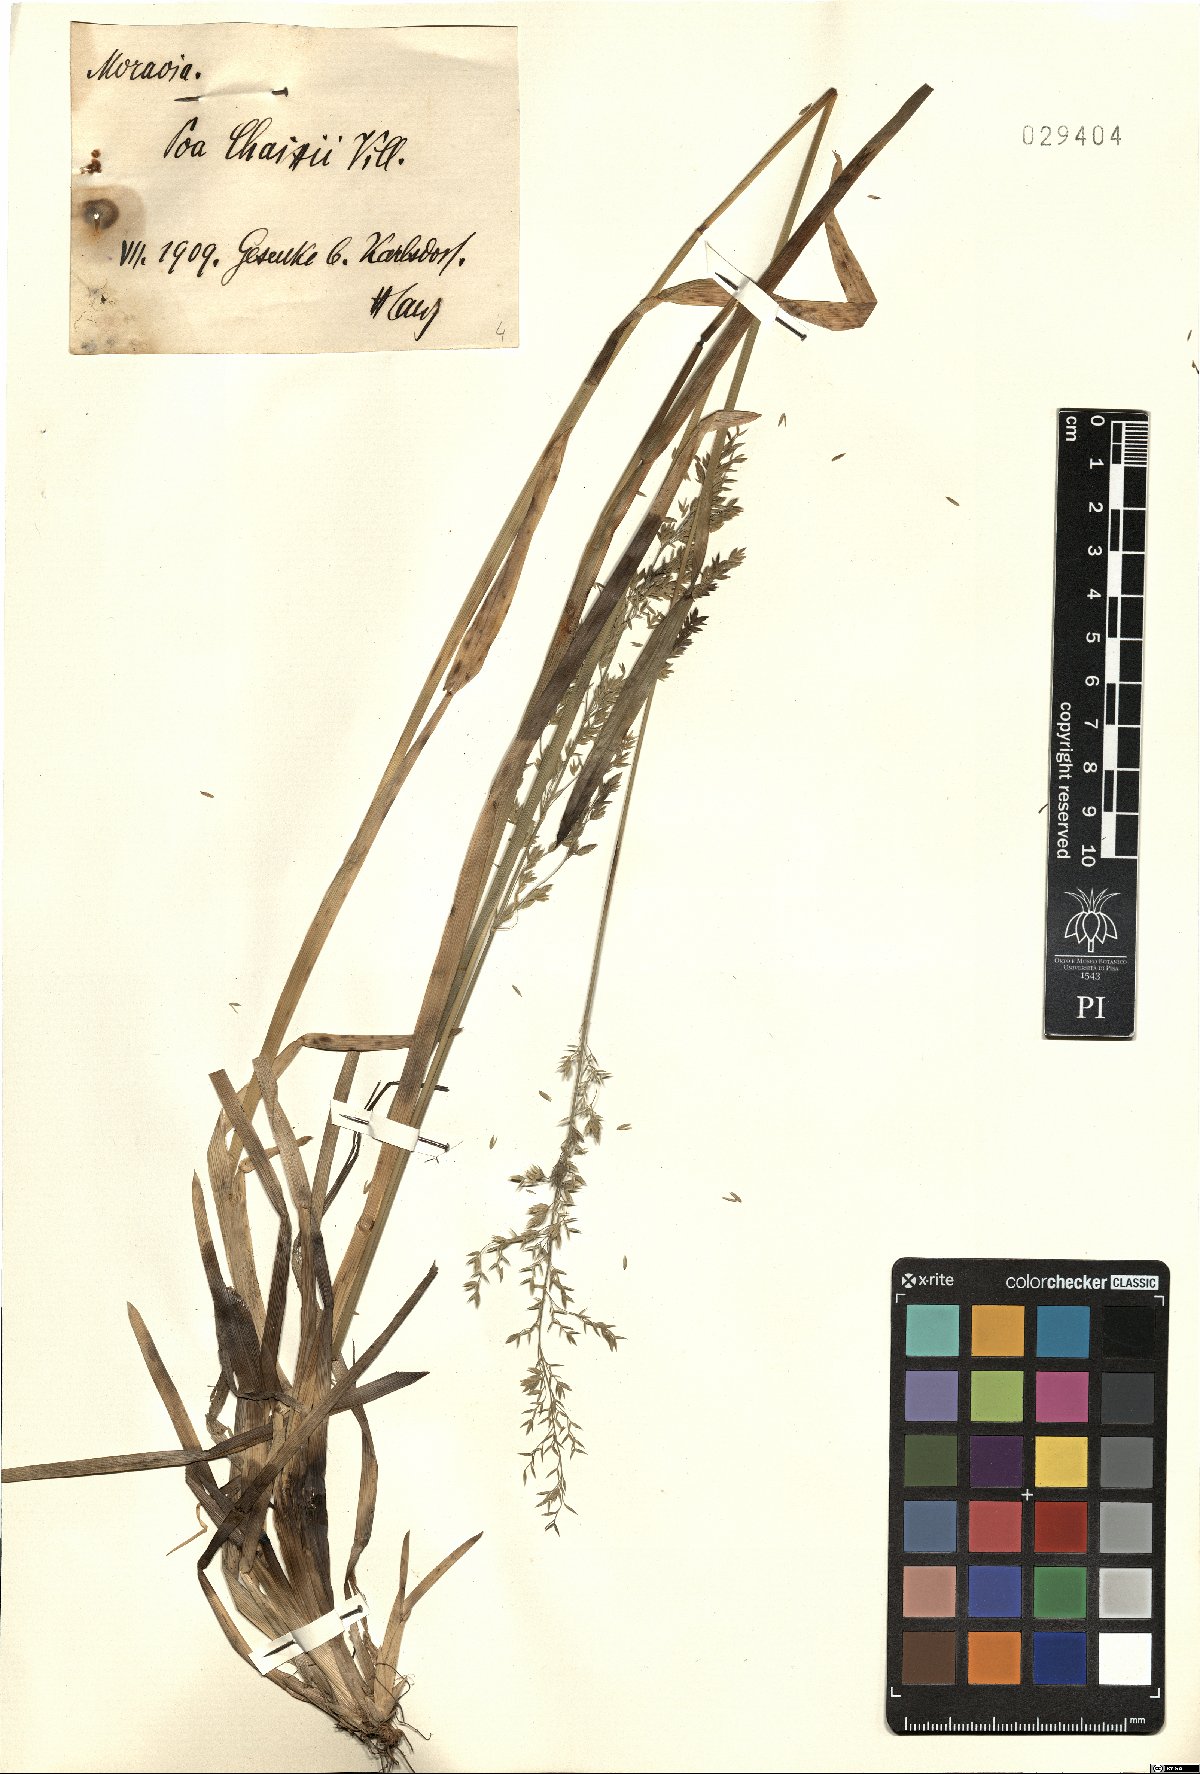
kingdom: Plantae
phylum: Tracheophyta
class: Liliopsida
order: Poales
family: Poaceae
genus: Poa
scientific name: Poa chaixii
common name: Broad-leaved meadow-grass
